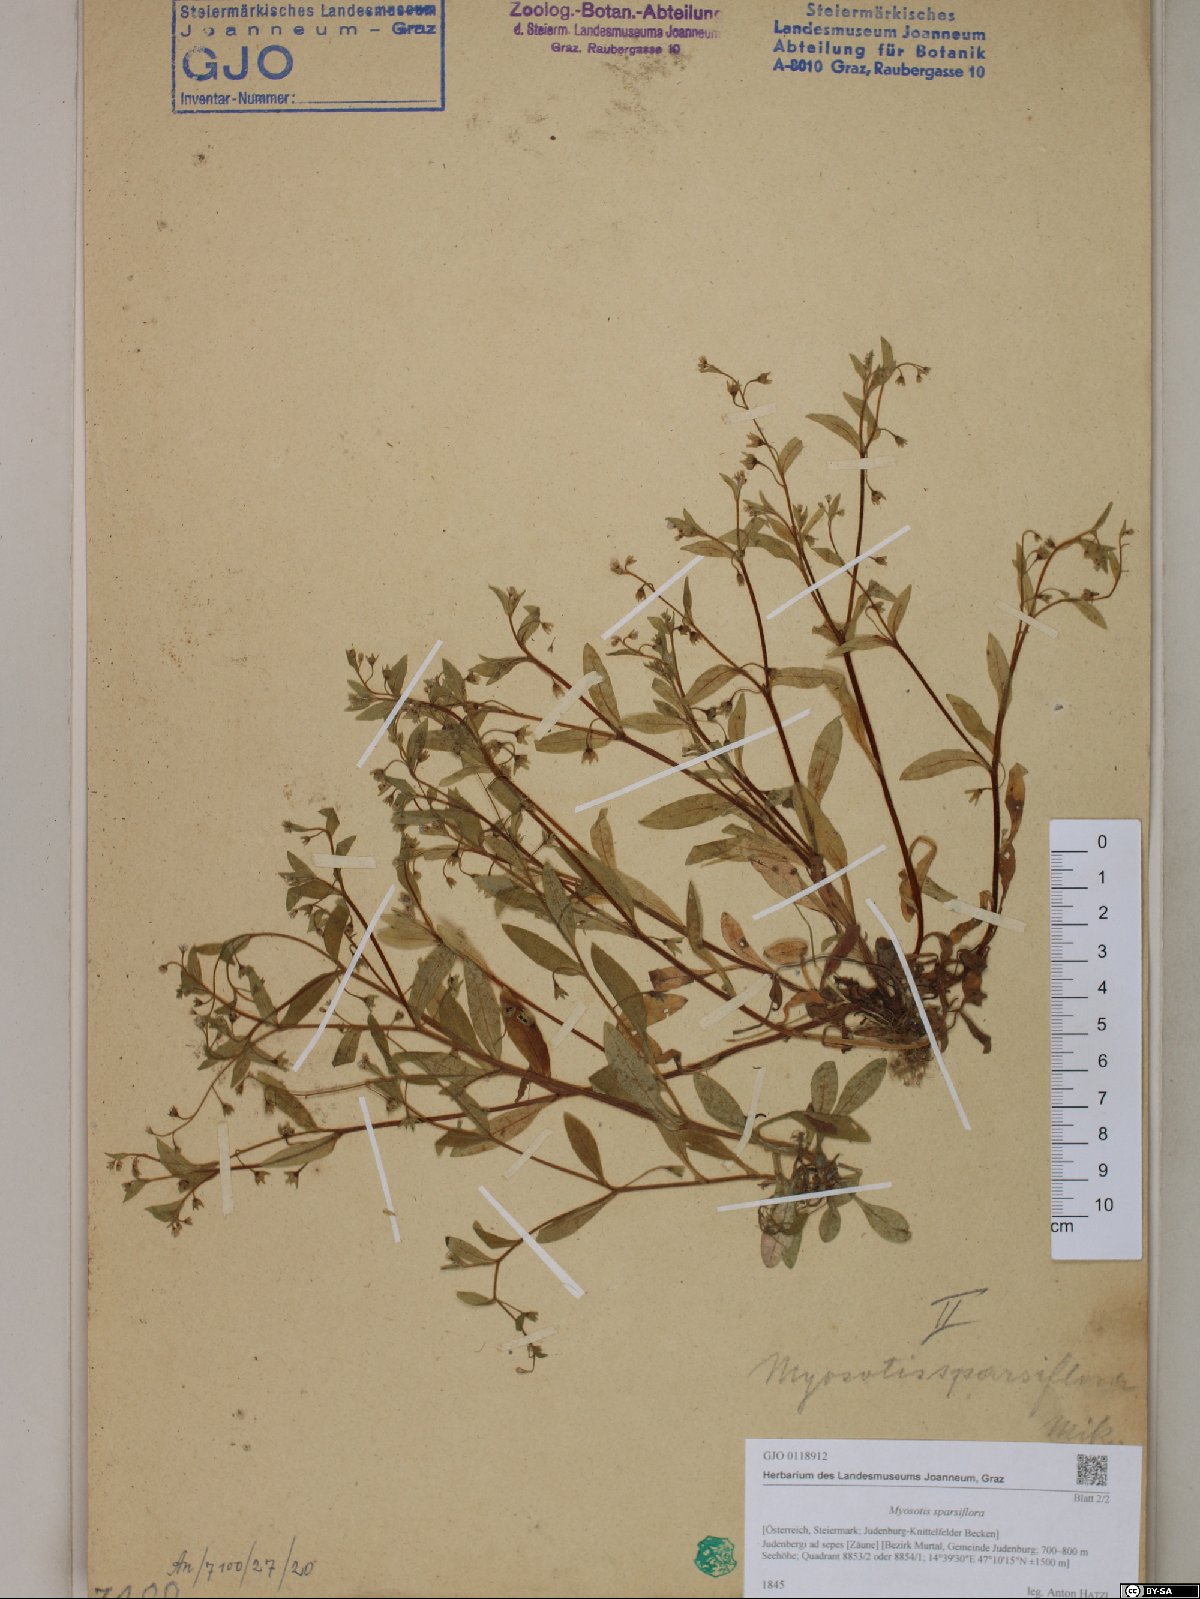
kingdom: Plantae
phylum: Tracheophyta
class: Magnoliopsida
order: Boraginales
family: Boraginaceae
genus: Myosotis
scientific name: Myosotis sparsiflora
